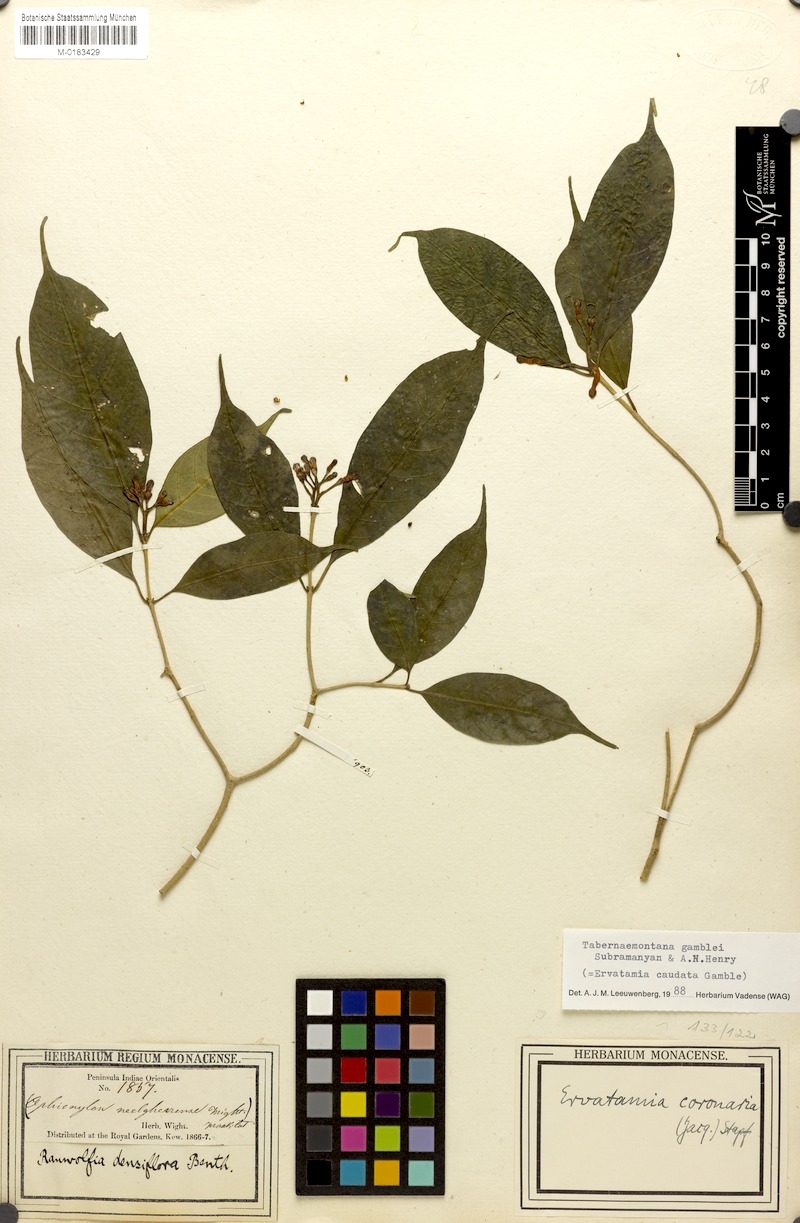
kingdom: Plantae
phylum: Tracheophyta
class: Magnoliopsida
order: Gentianales
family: Apocynaceae
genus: Tabernaemontana
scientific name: Tabernaemontana gamblei
